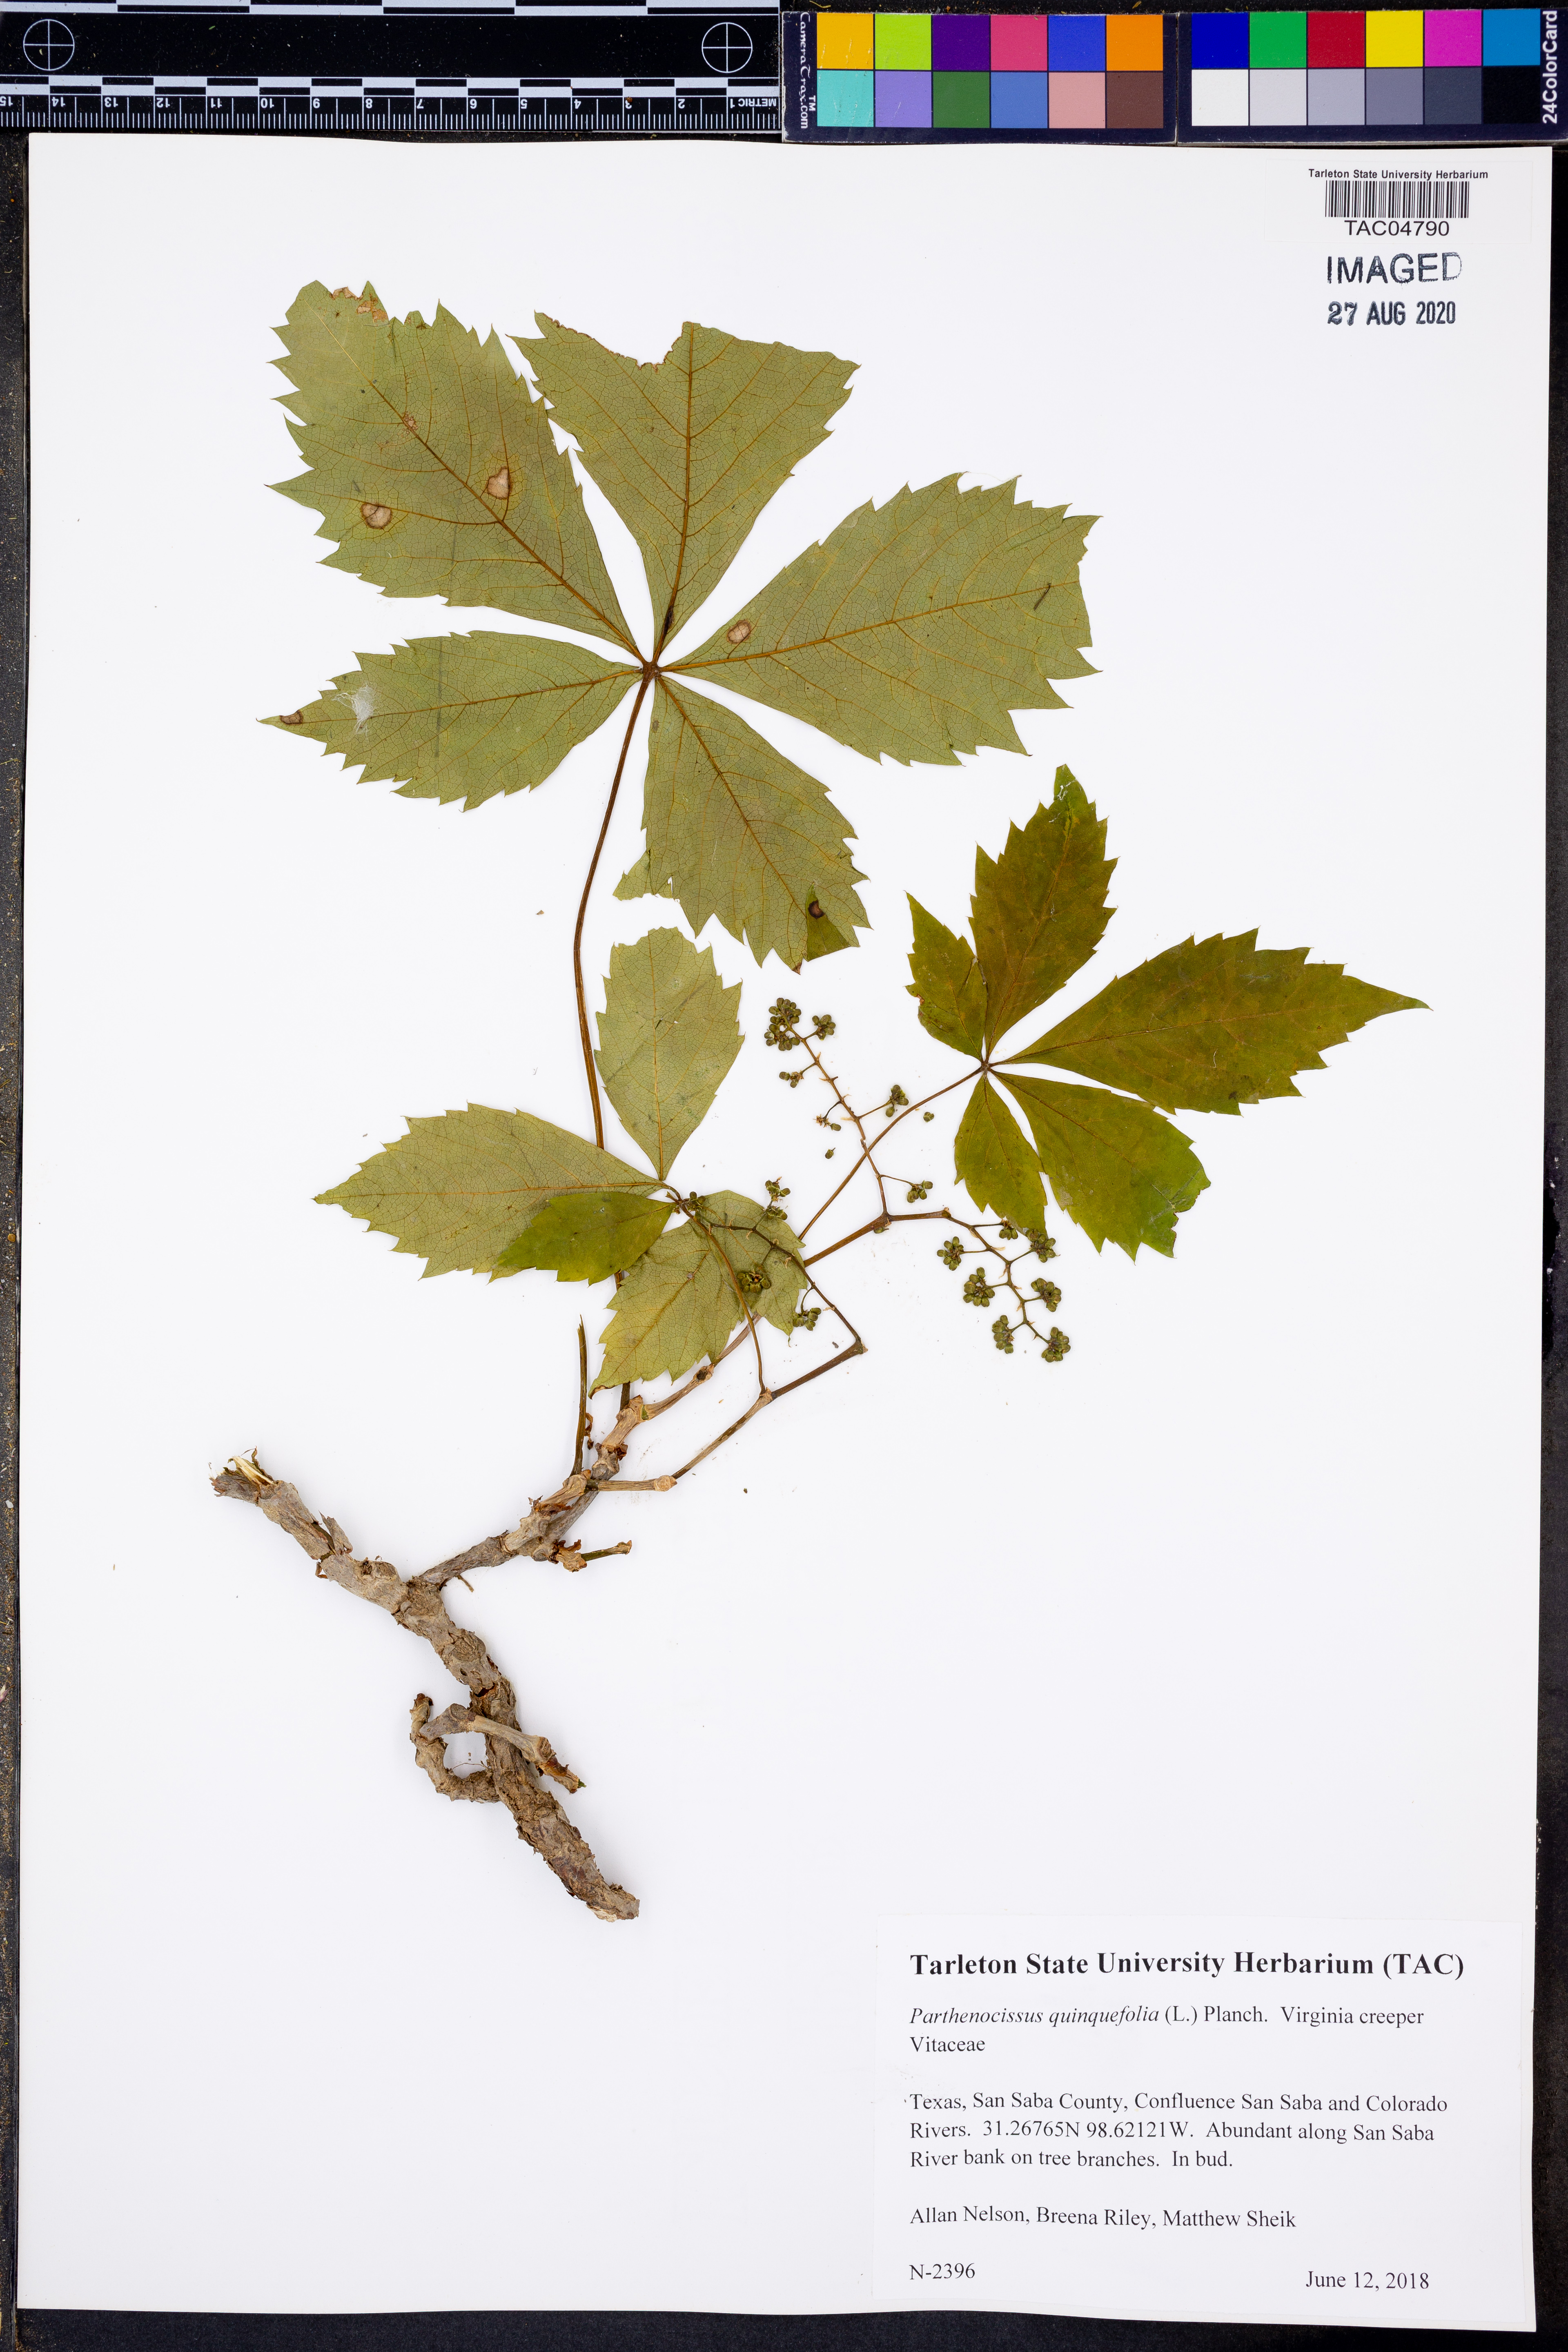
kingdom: Plantae
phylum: Tracheophyta
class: Magnoliopsida
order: Vitales
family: Vitaceae
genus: Parthenocissus
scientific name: Parthenocissus quinquefolia
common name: Virginia-creeper
